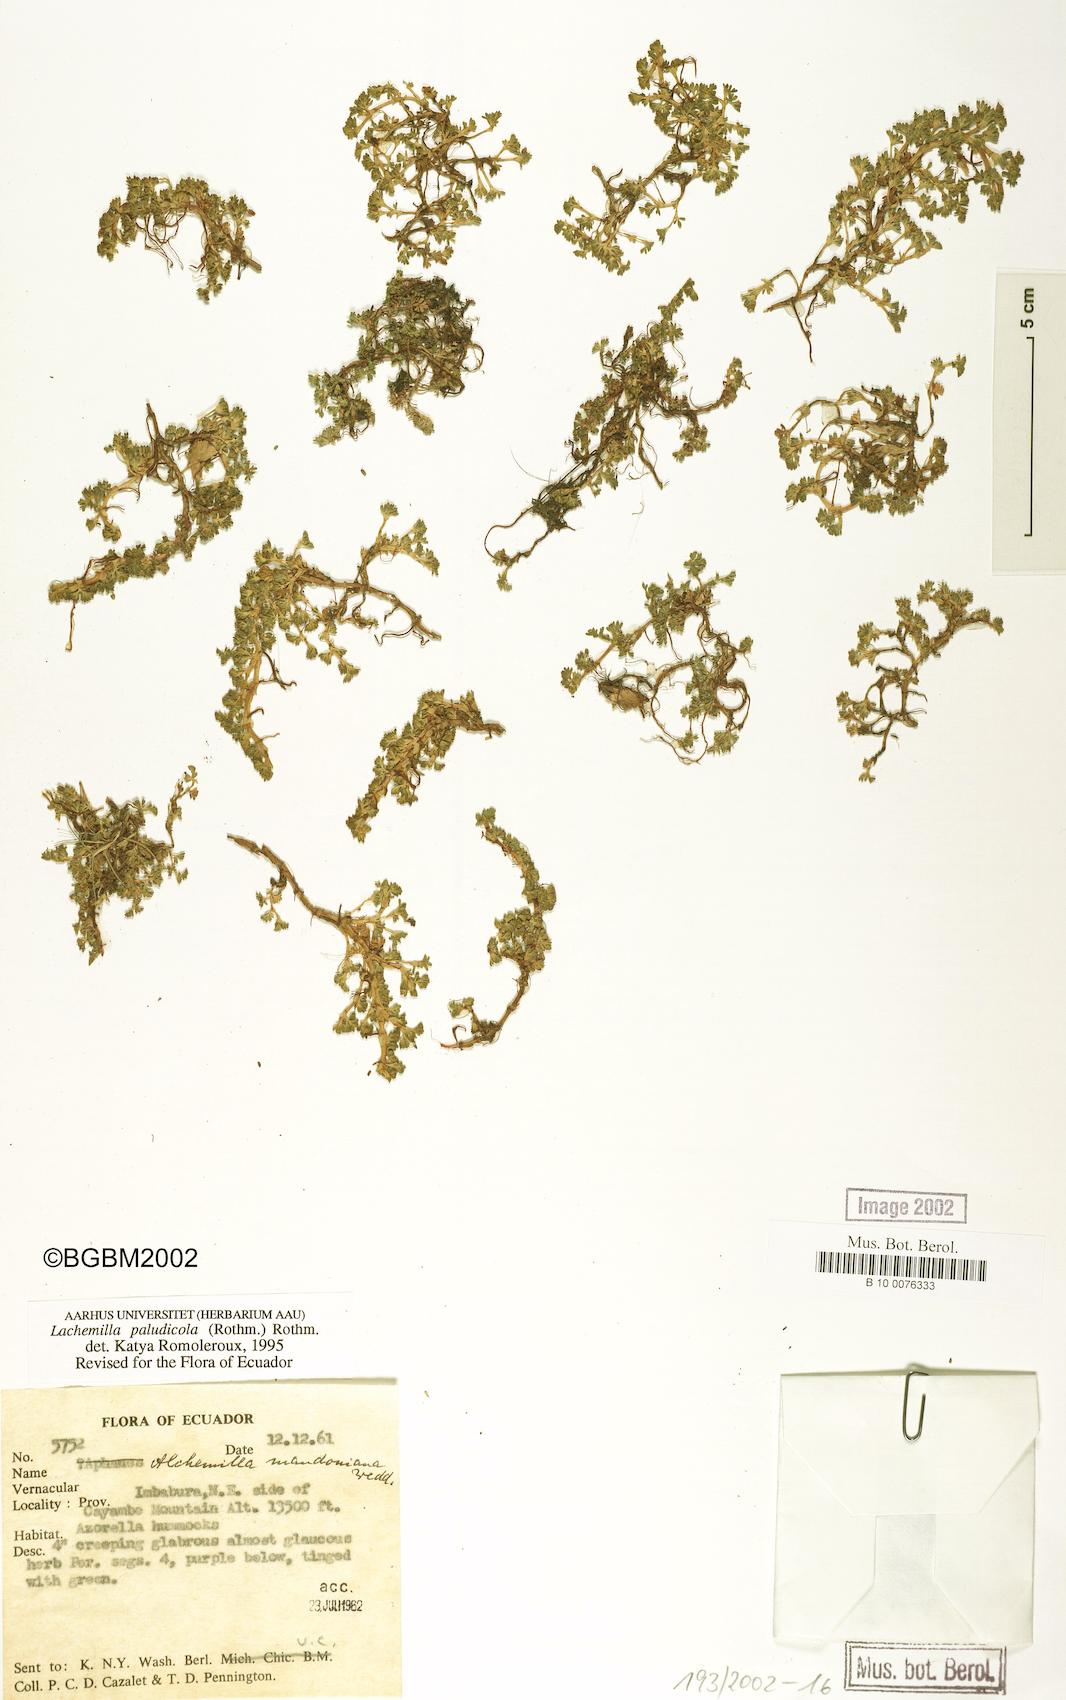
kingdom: Plantae
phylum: Tracheophyta
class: Magnoliopsida
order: Rosales
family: Rosaceae
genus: Lachemilla
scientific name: Lachemilla mandoniana
